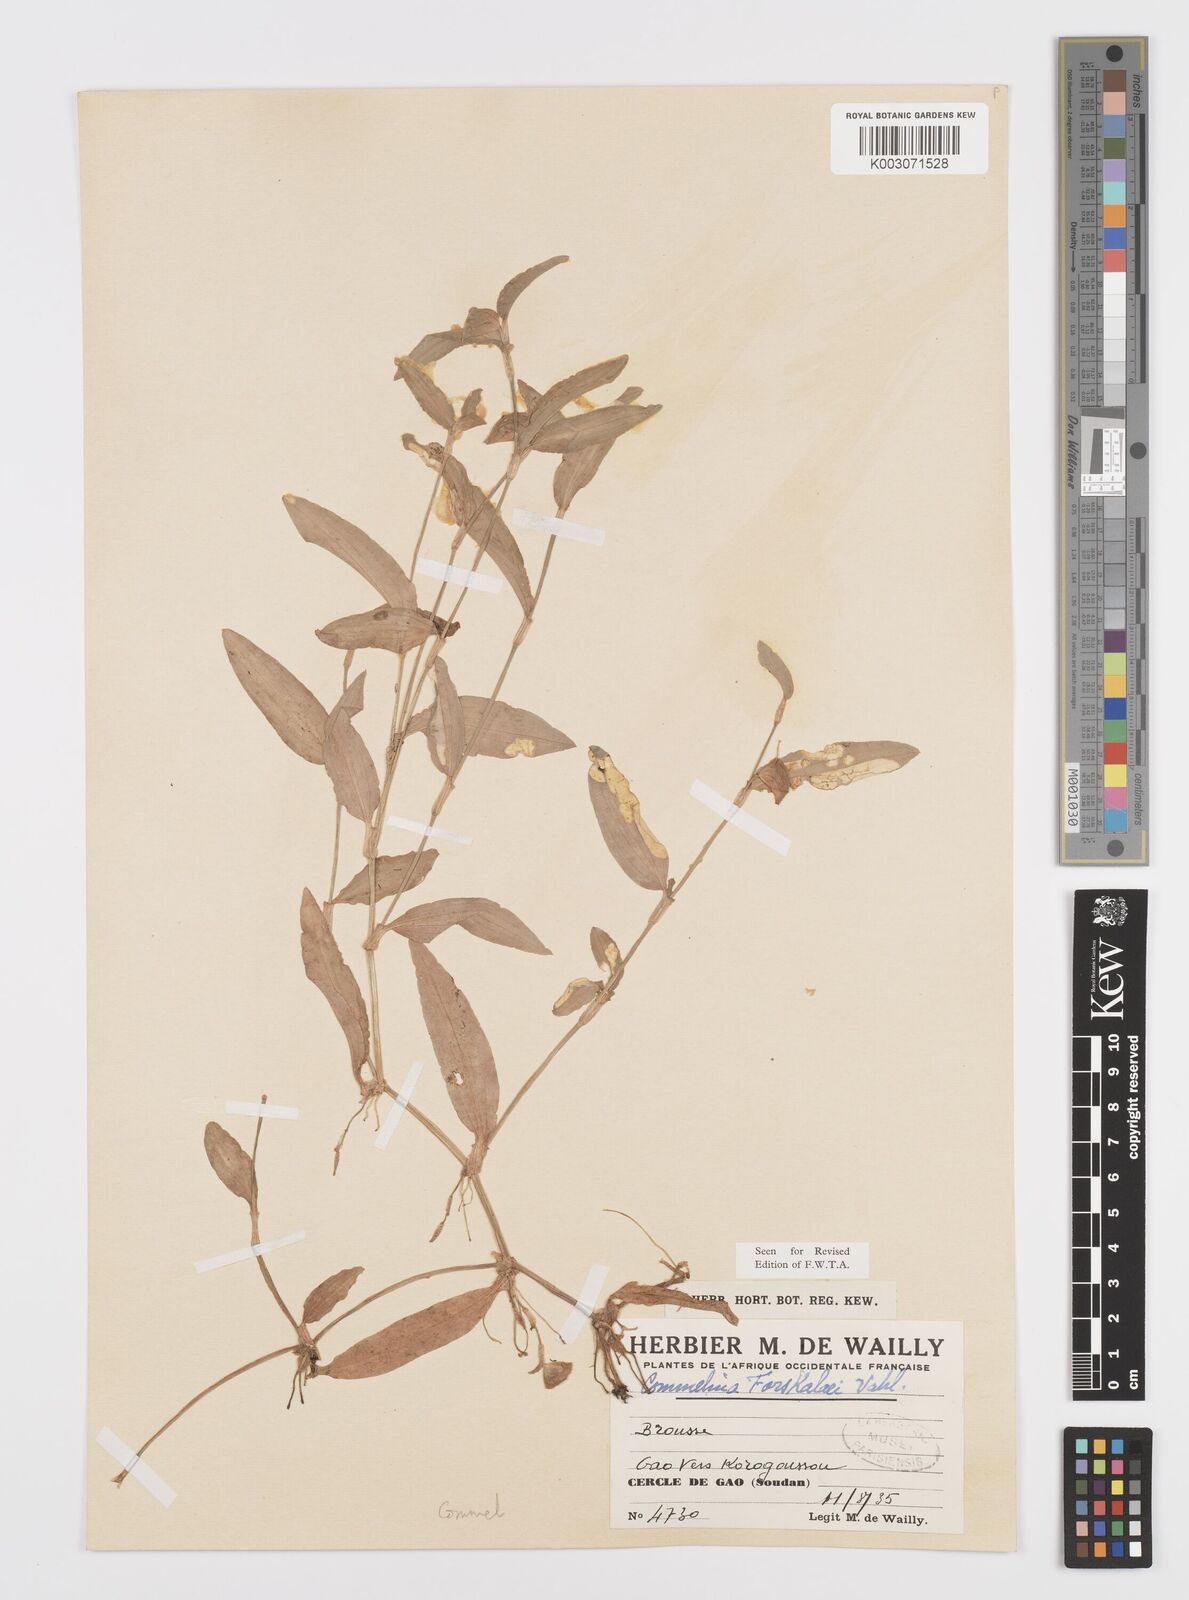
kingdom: Plantae
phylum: Tracheophyta
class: Liliopsida
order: Commelinales
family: Commelinaceae
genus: Commelina
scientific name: Commelina forskaolii
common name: Rat's ear
